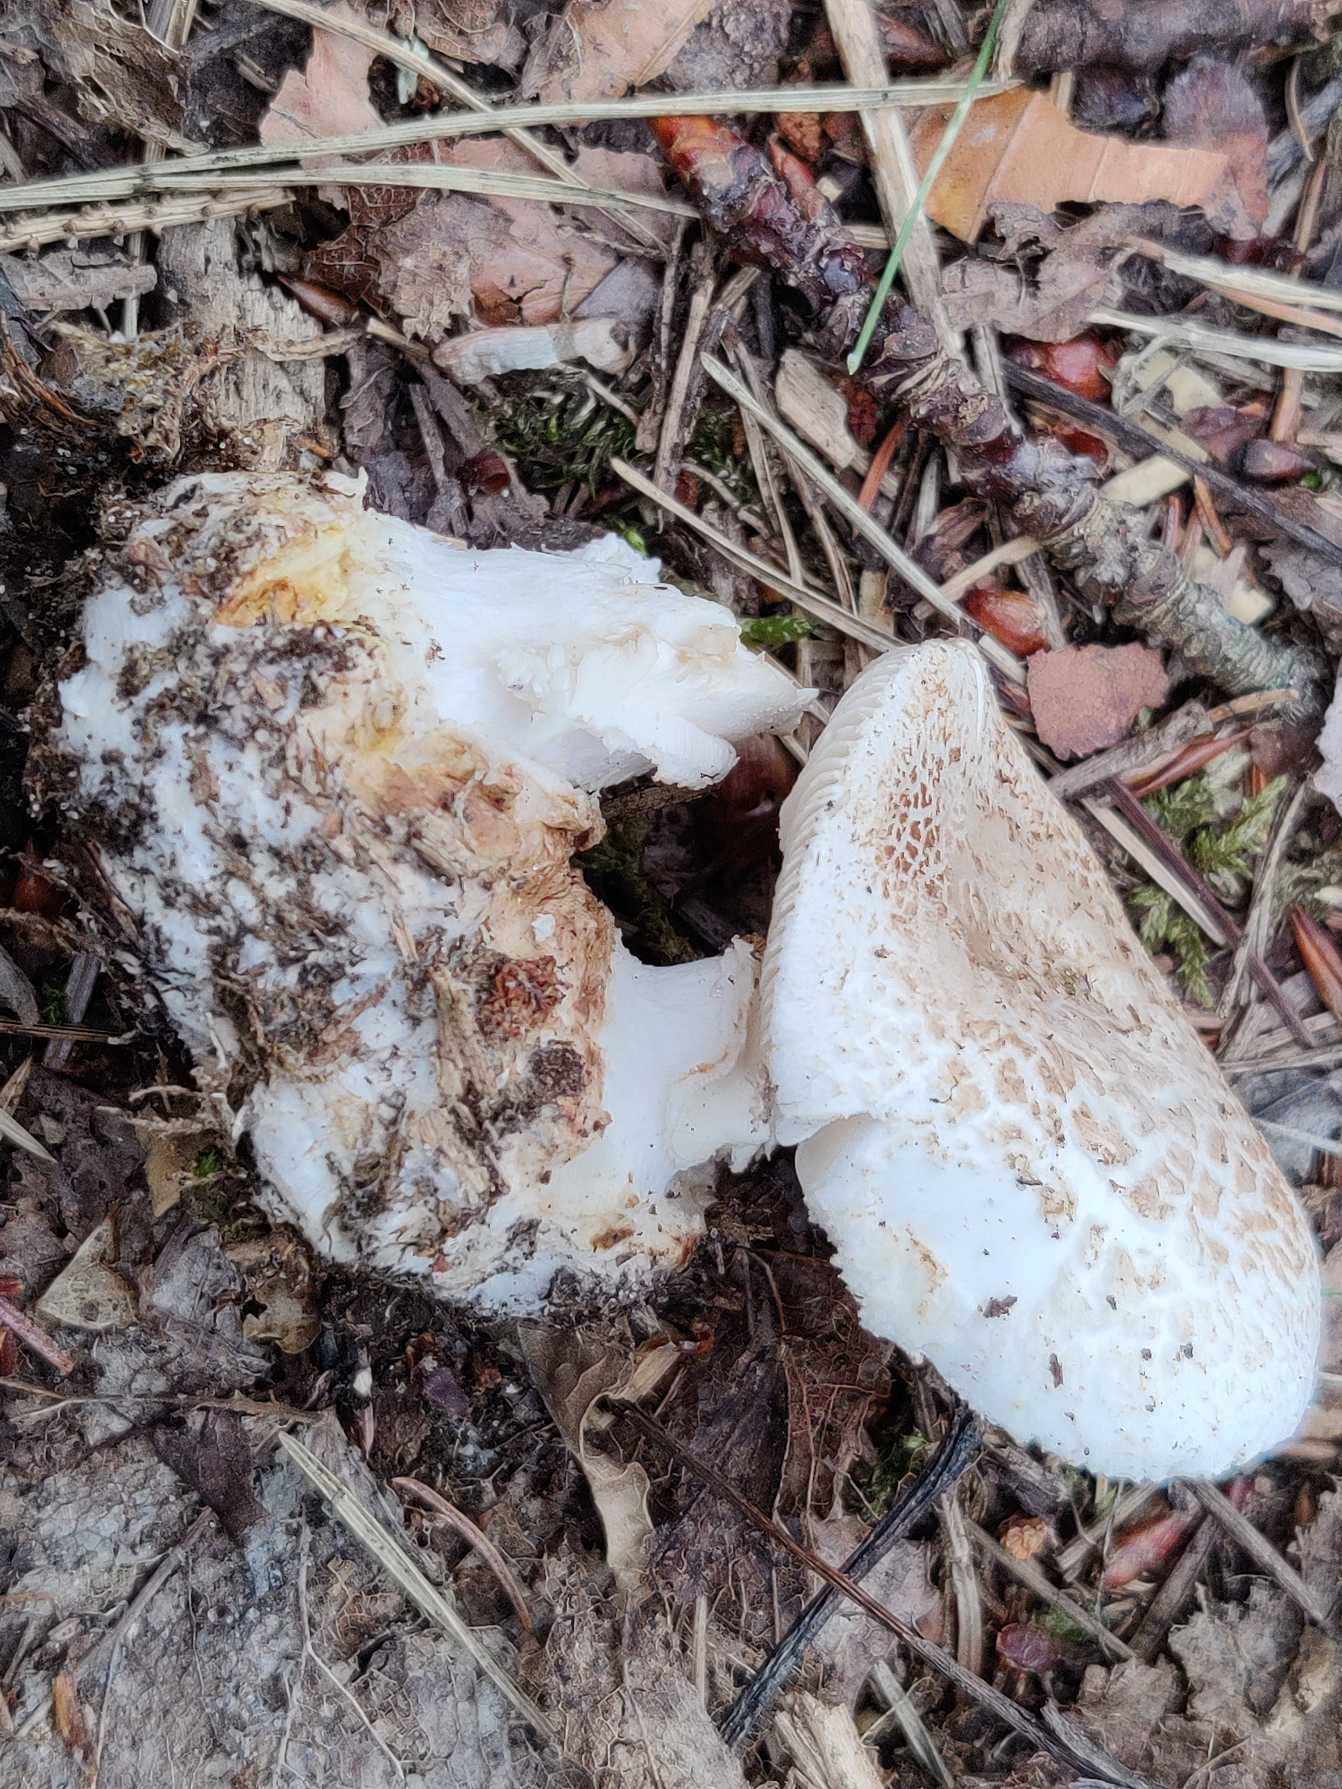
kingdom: Fungi
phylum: Basidiomycota
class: Agaricomycetes
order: Agaricales
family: Amanitaceae
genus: Amanita
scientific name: Amanita citrina
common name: Kugleknoldet fluesvamp
